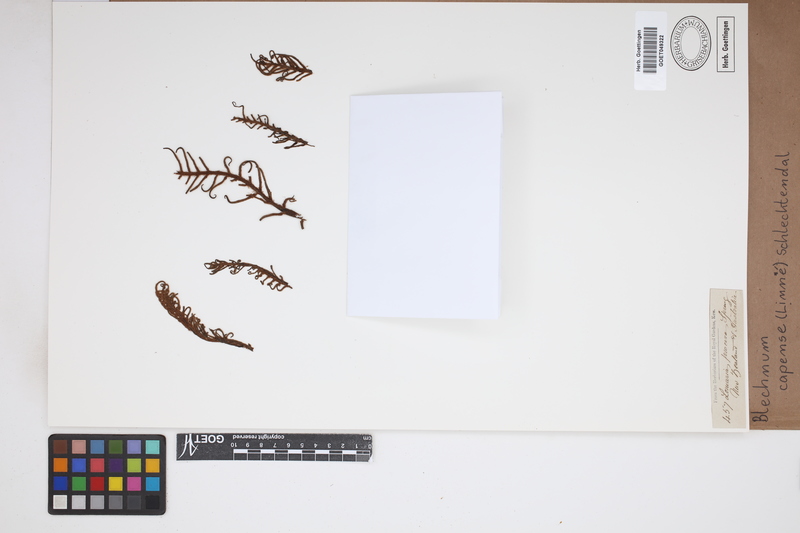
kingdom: Plantae
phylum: Tracheophyta
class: Polypodiopsida
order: Polypodiales
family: Blechnaceae
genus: Parablechnum
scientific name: Parablechnum capense
